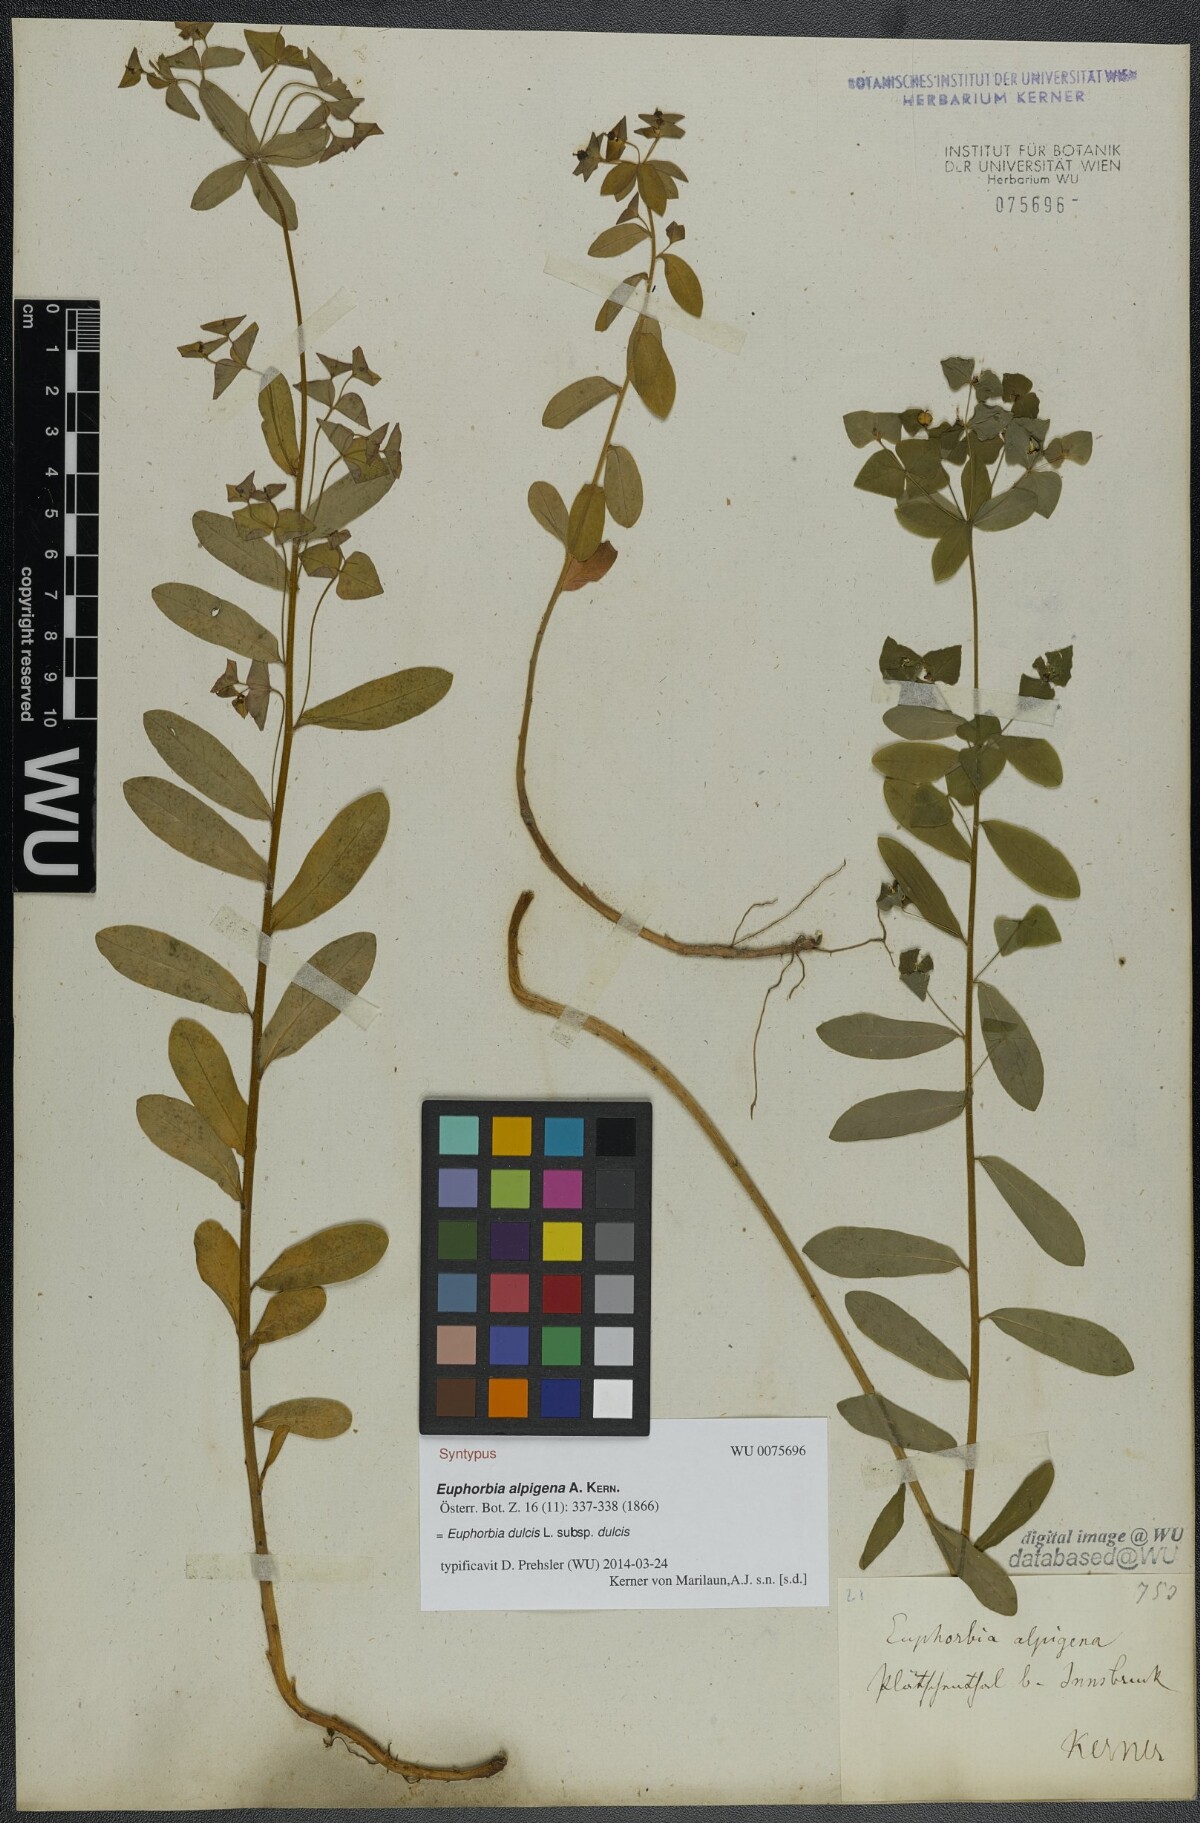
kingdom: Plantae
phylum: Tracheophyta
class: Magnoliopsida
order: Malpighiales
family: Euphorbiaceae
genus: Euphorbia
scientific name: Euphorbia dulcis
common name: Sweet spurge
